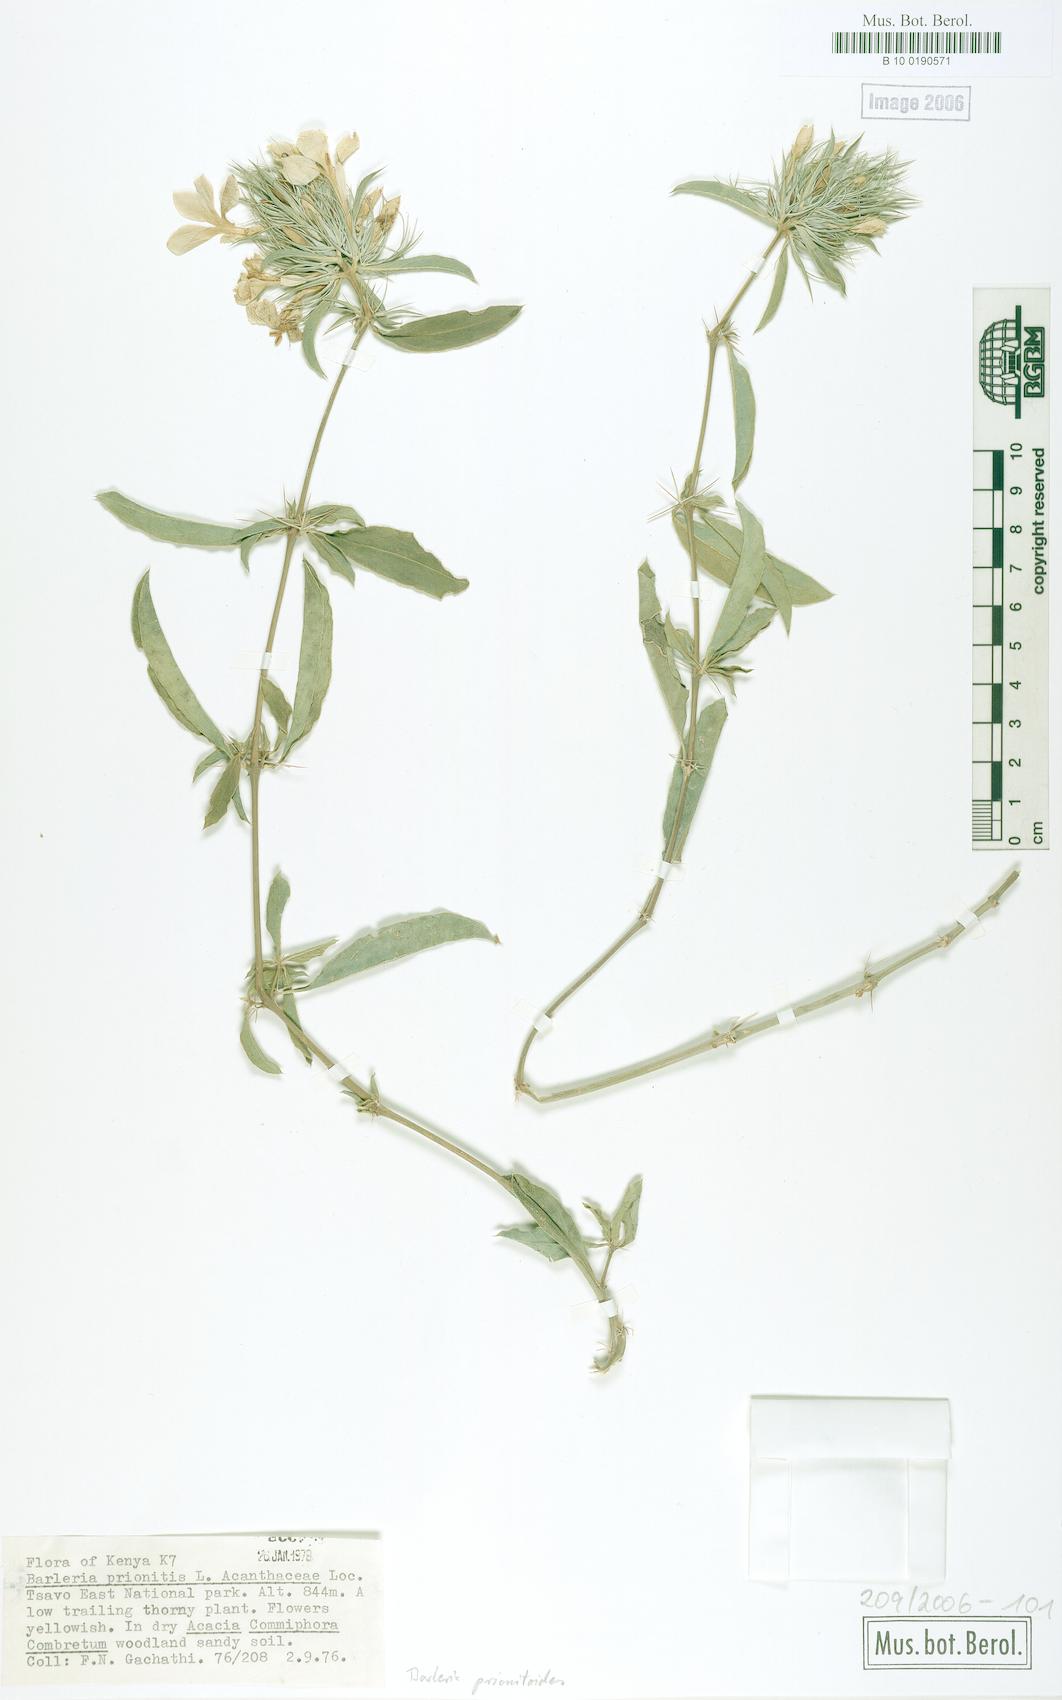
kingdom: Plantae
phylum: Tracheophyta
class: Magnoliopsida
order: Lamiales
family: Acanthaceae
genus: Barleria
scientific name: Barleria polhillii
